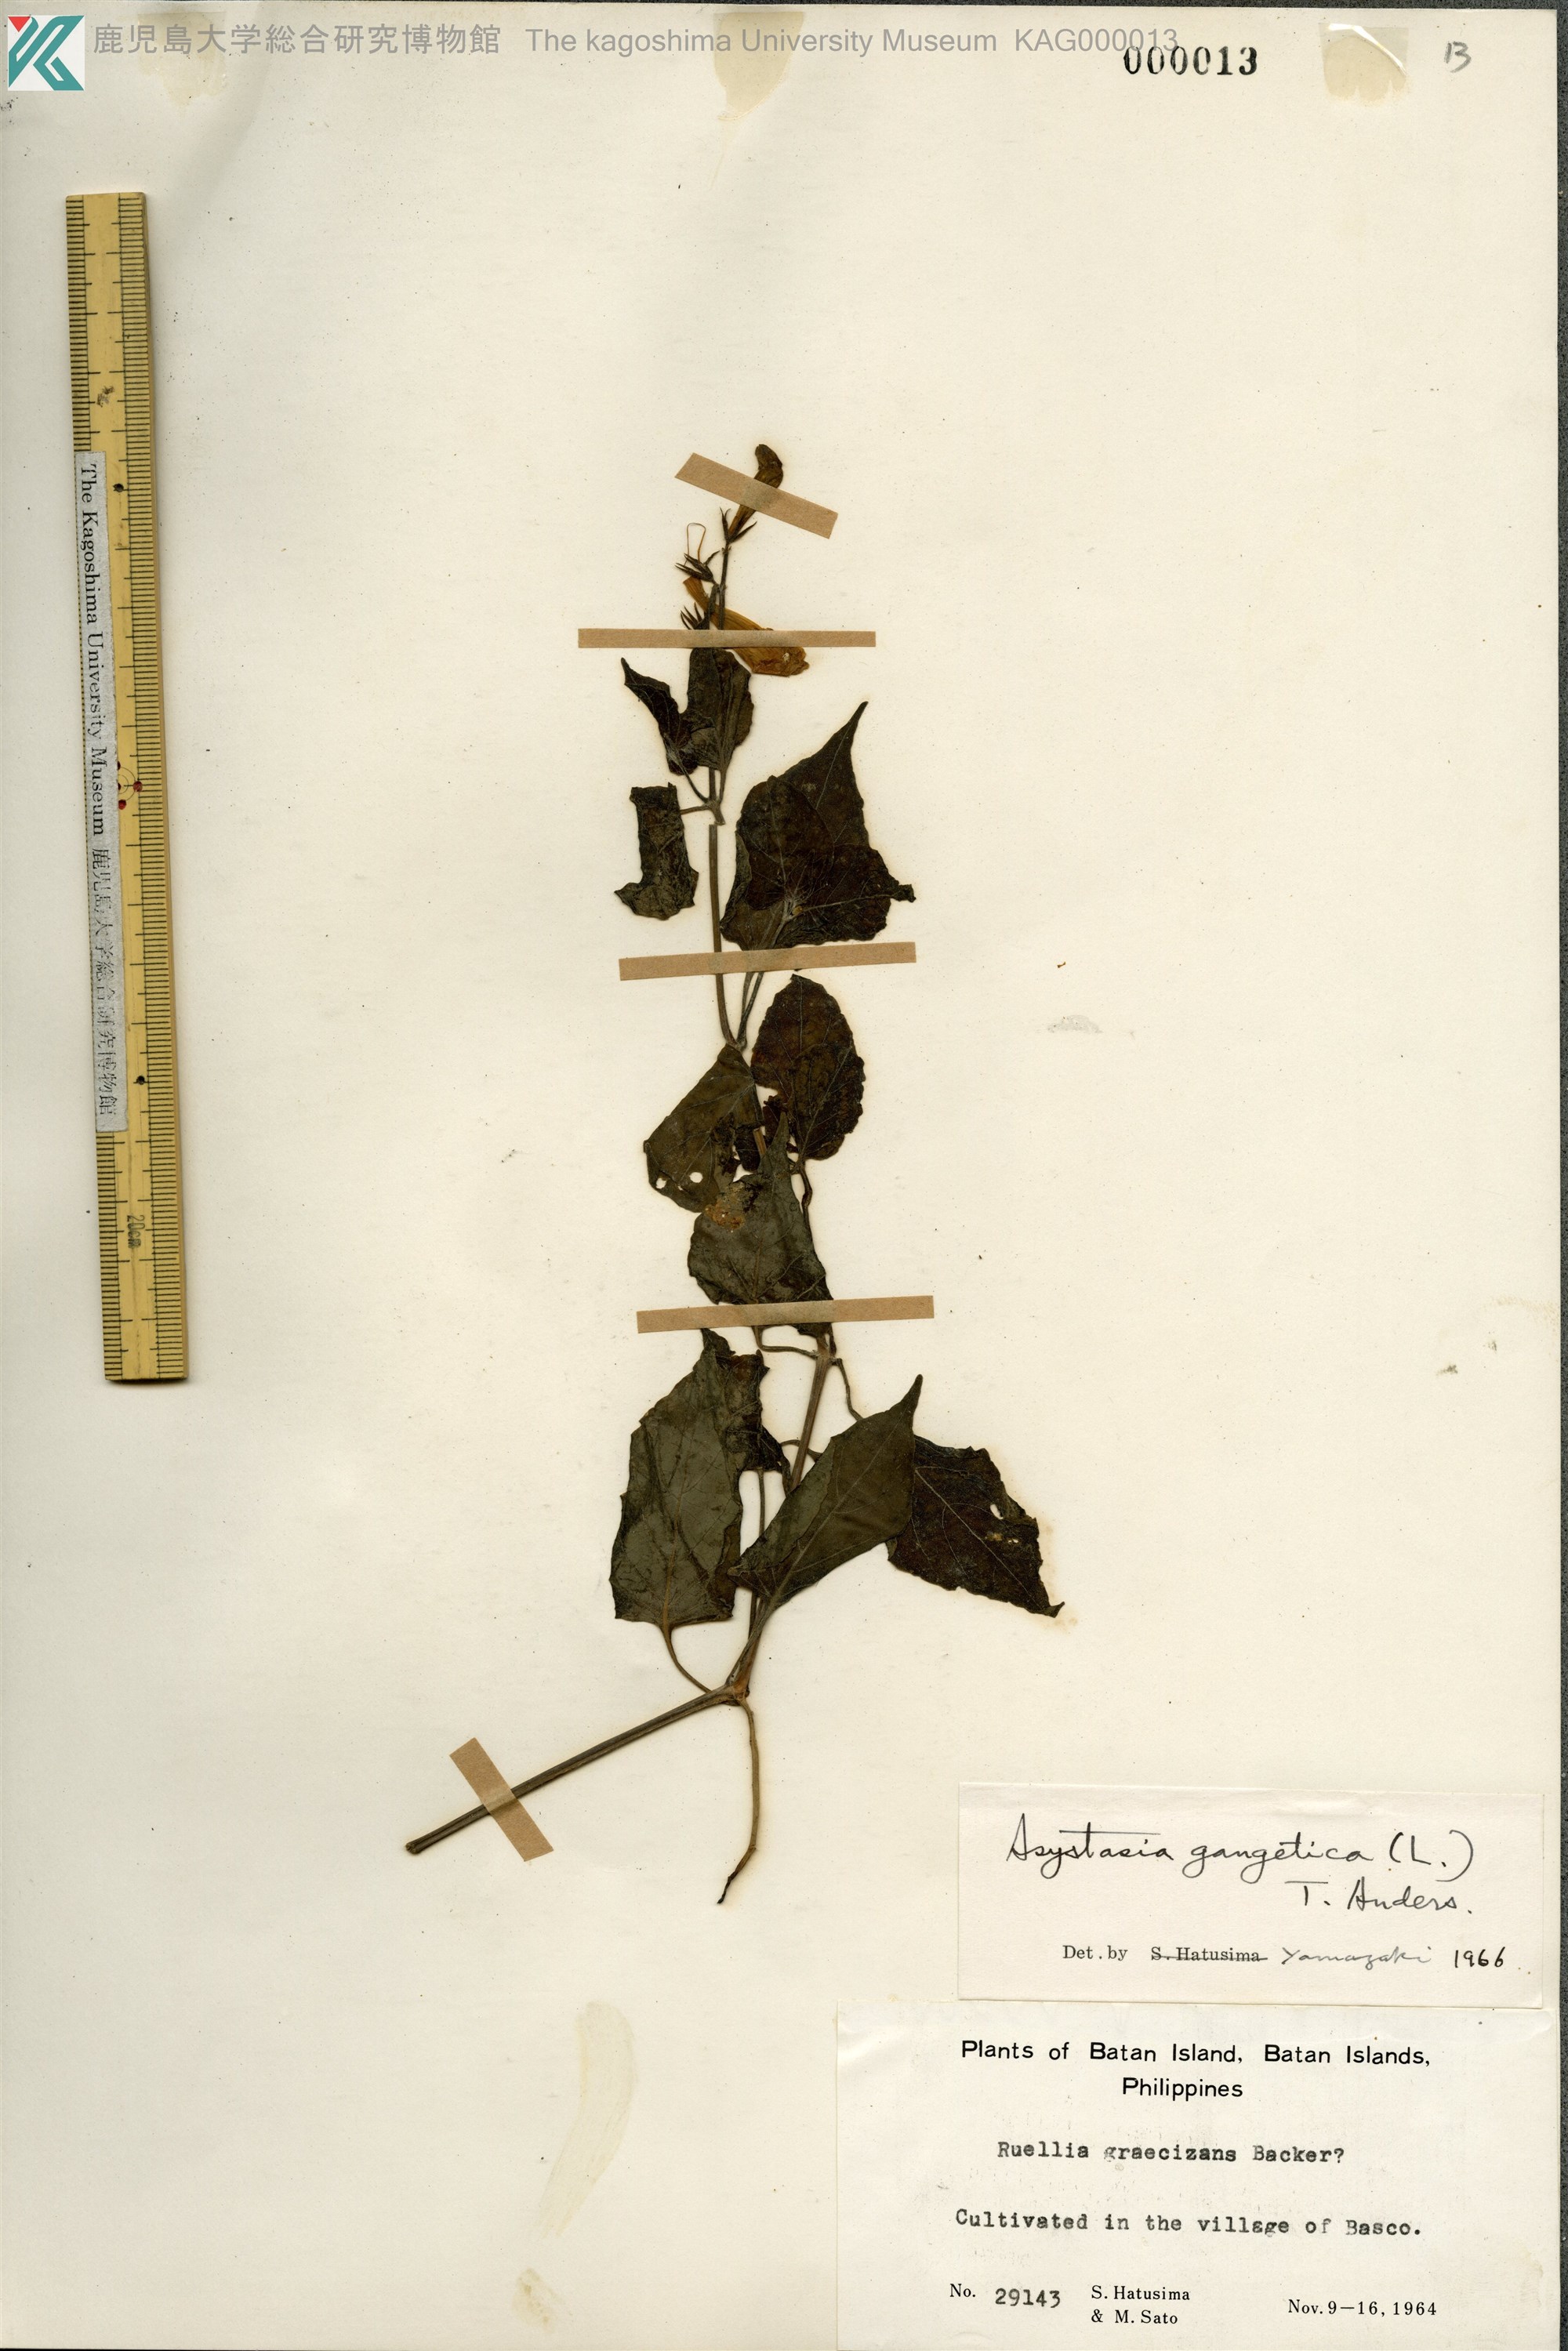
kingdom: Plantae
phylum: Tracheophyta
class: Magnoliopsida
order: Lamiales
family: Acanthaceae
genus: Asystasia
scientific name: Asystasia gangetica
